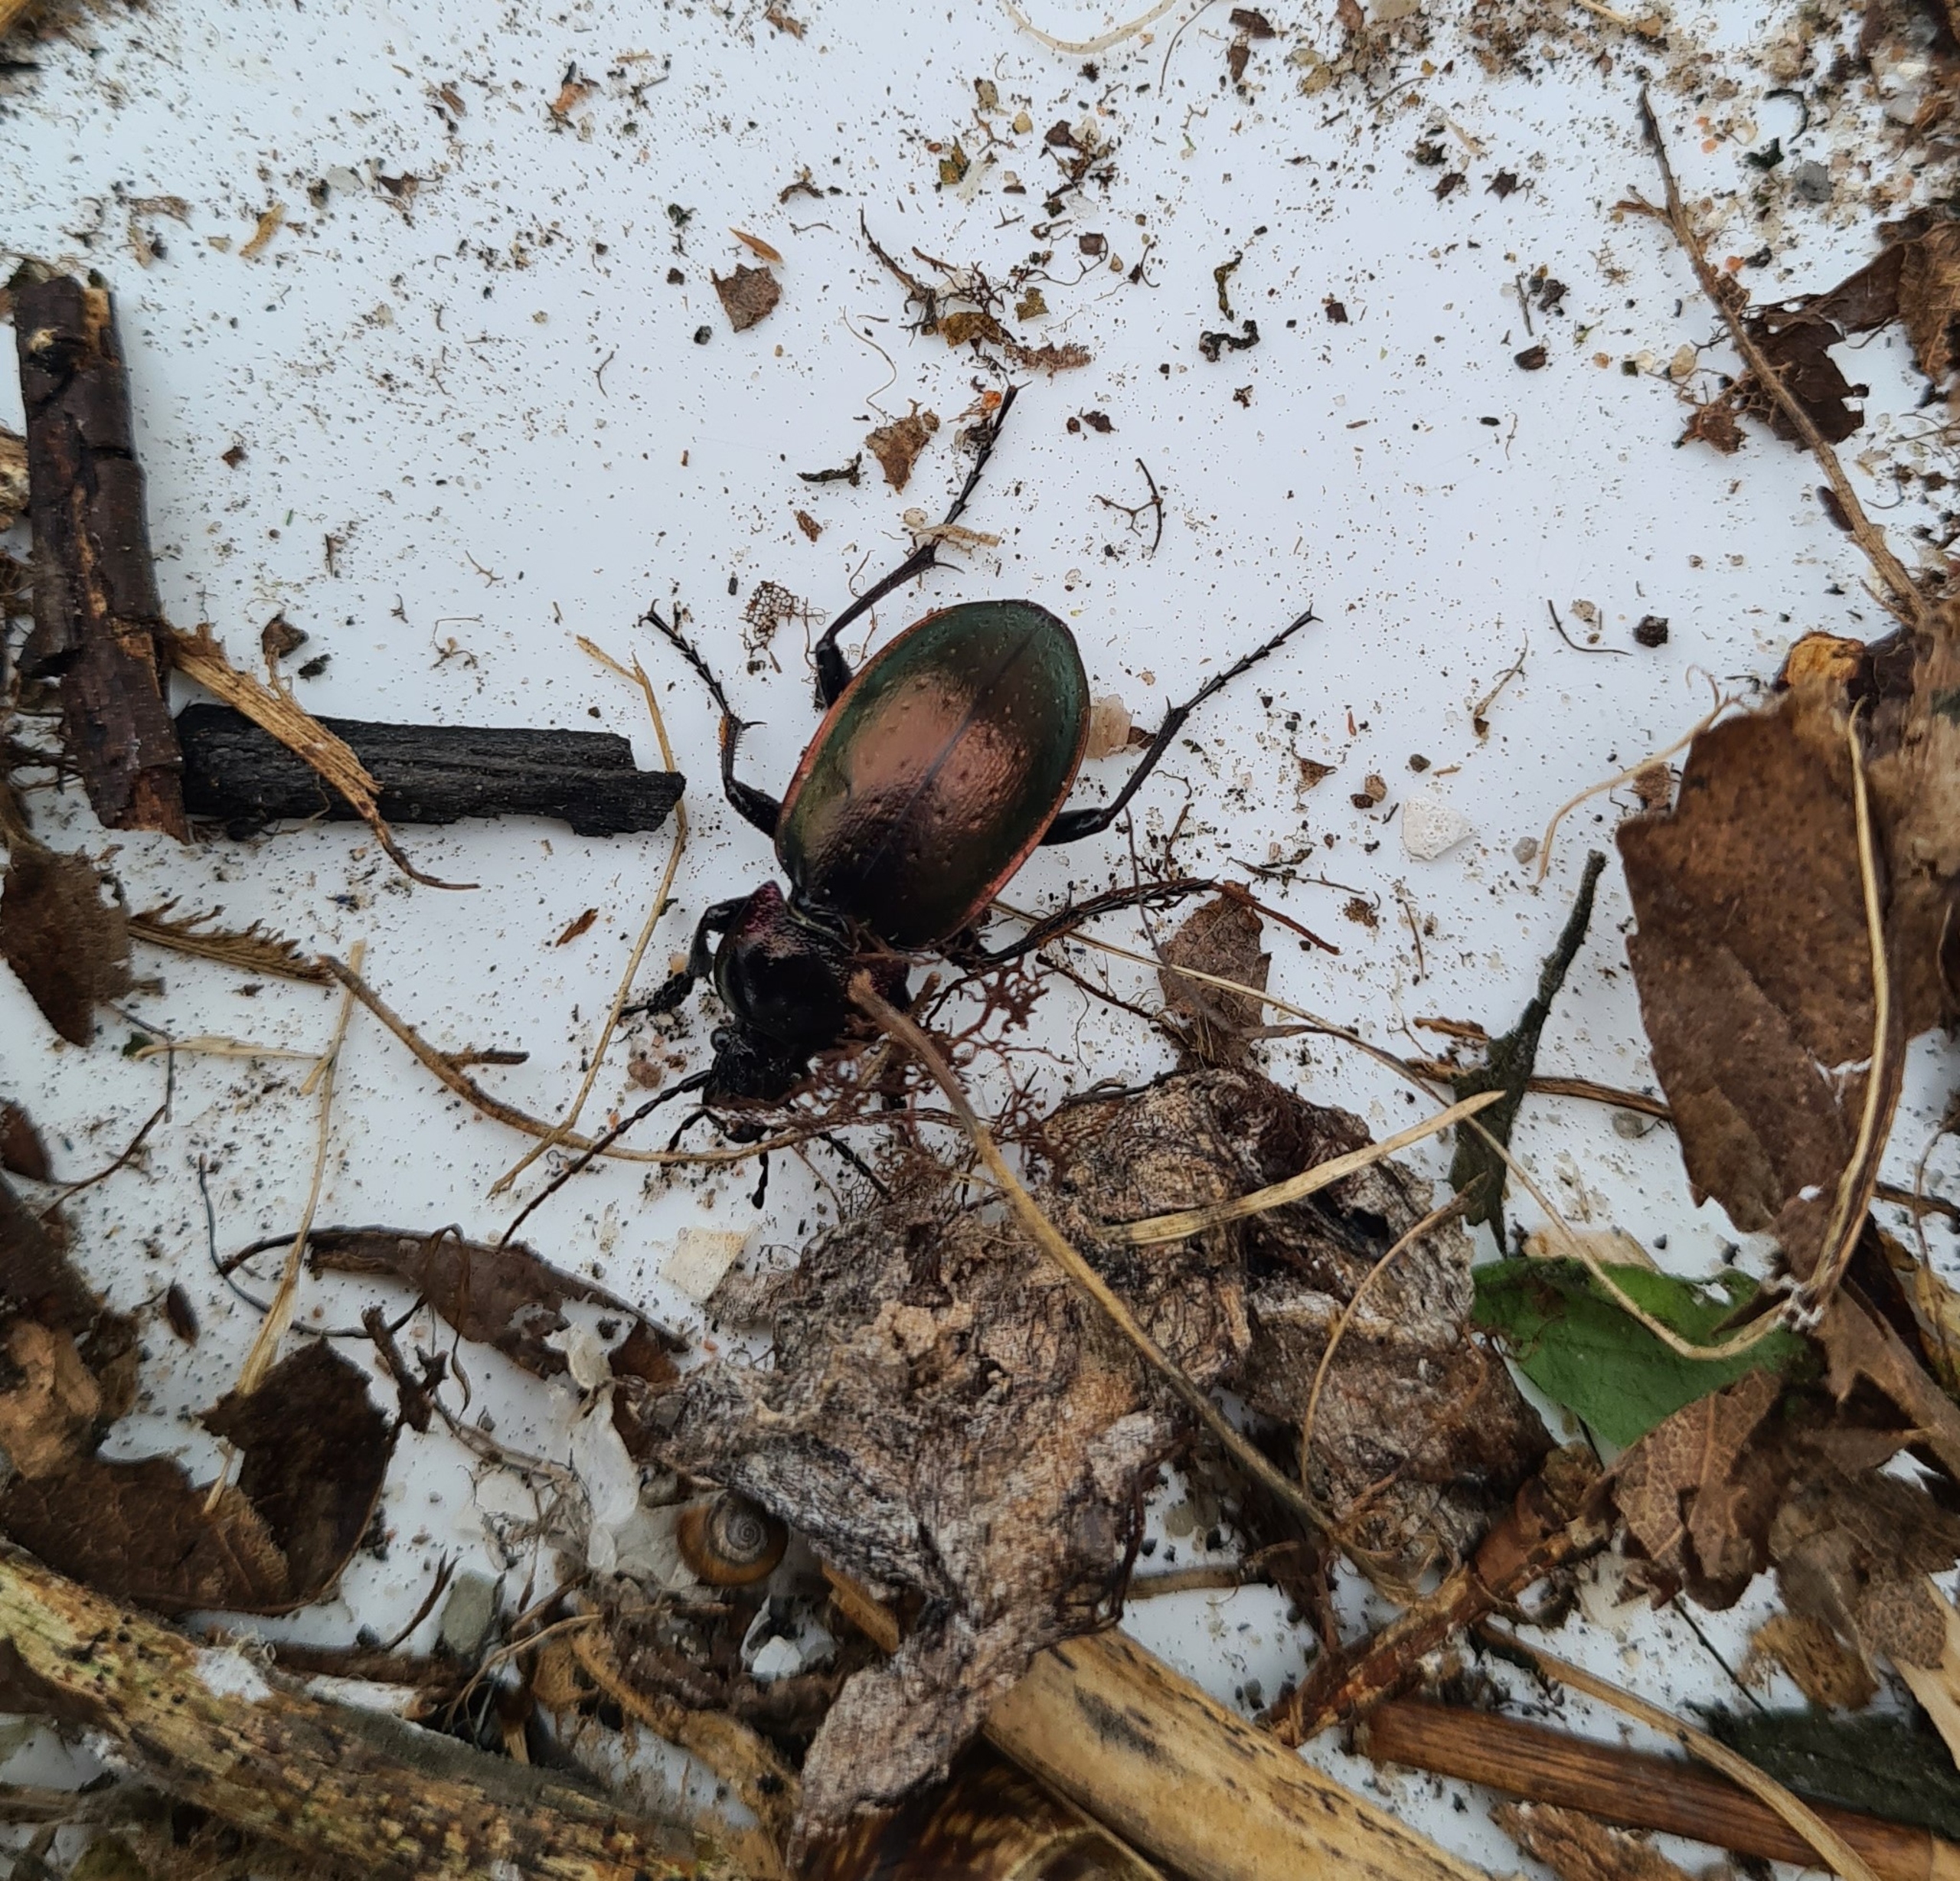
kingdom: Animalia
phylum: Arthropoda
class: Insecta
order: Coleoptera
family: Carabidae
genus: Carabus
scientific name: Carabus nemoralis
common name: Kratløber
